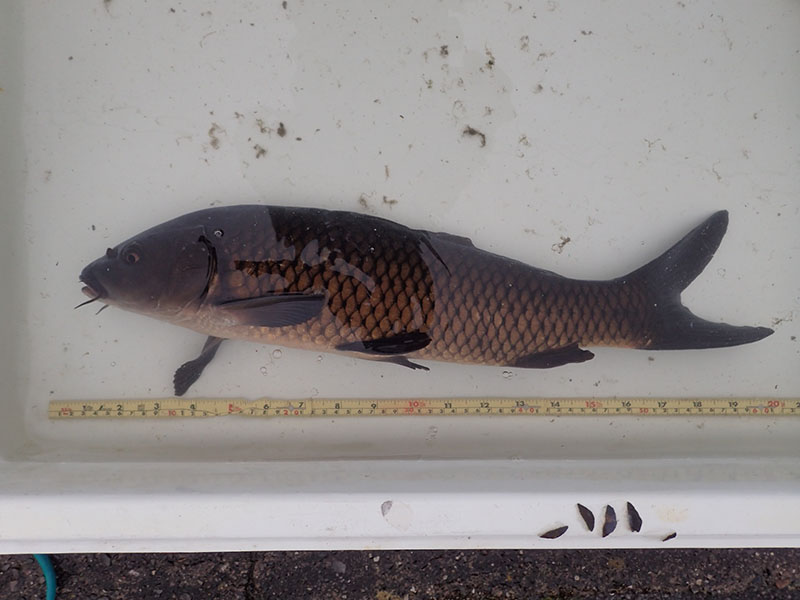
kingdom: Animalia
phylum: Chordata
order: Cypriniformes
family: Cyprinidae
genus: Cyprinus
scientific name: Cyprinus carpio
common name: コイ
